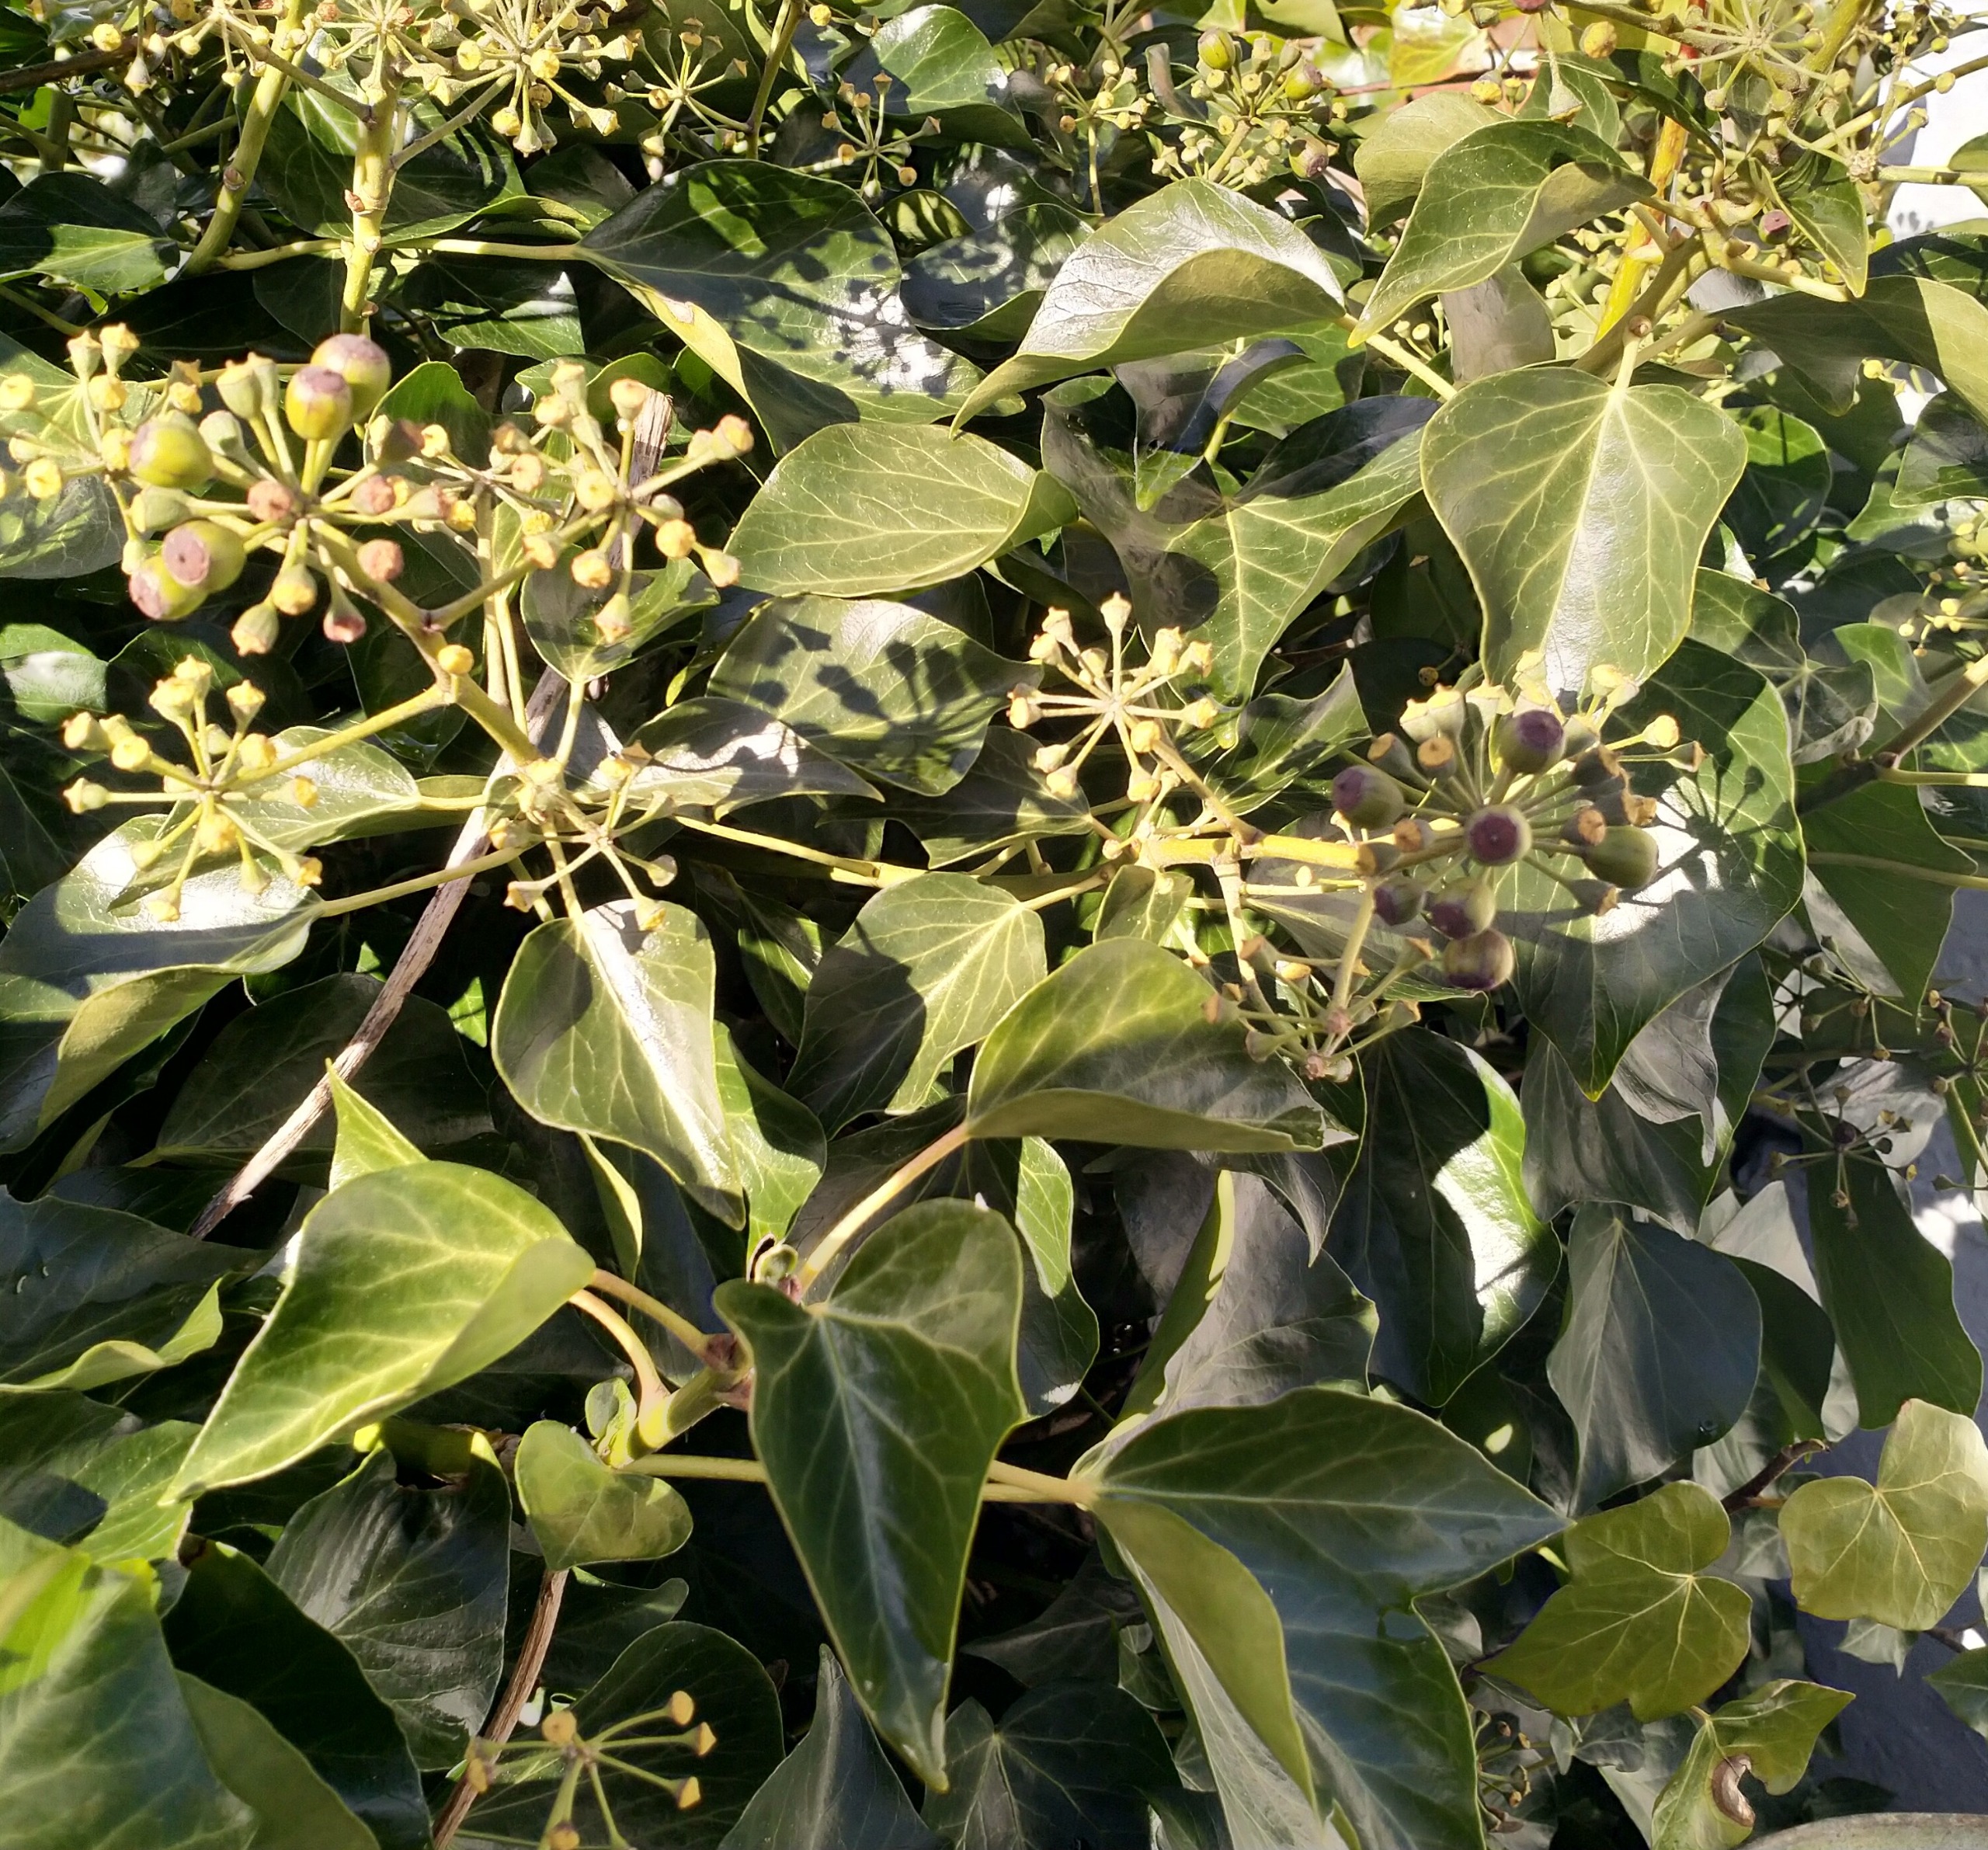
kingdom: Plantae
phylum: Tracheophyta
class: Magnoliopsida
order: Apiales
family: Araliaceae
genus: Hedera
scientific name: Hedera helix
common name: Vedbend
